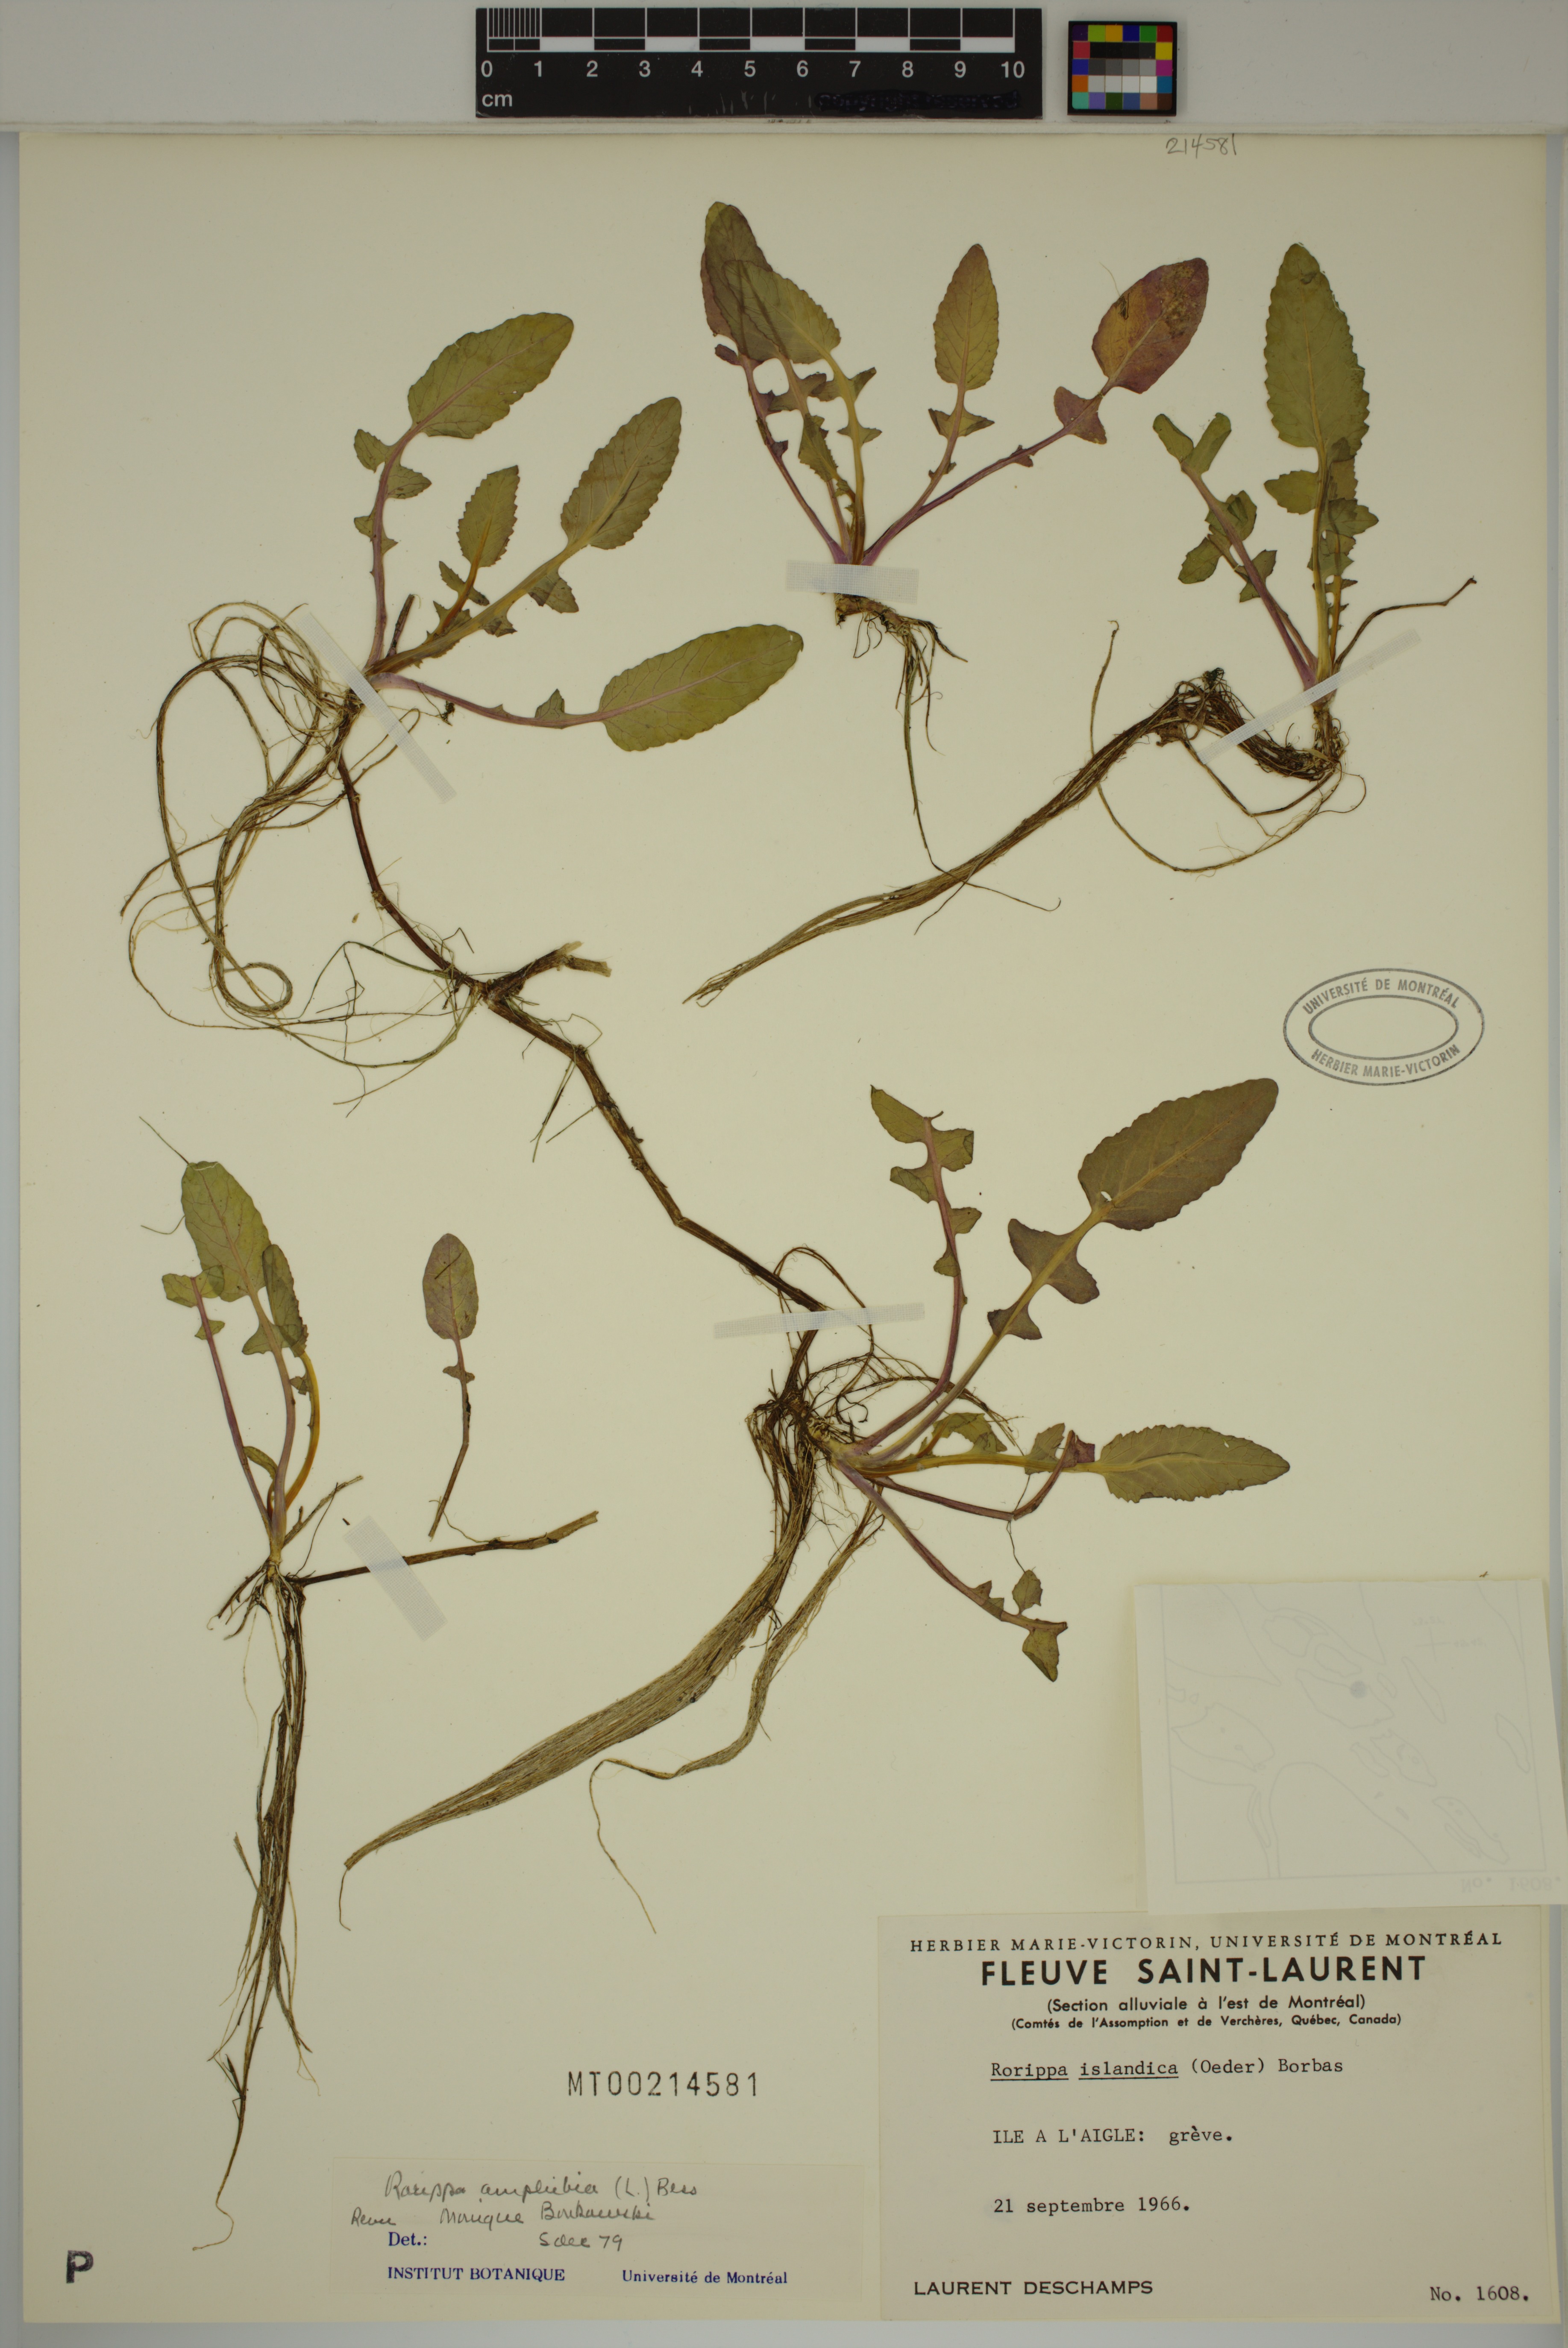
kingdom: Plantae
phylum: Tracheophyta
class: Magnoliopsida
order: Brassicales
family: Brassicaceae
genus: Rorippa
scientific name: Rorippa amphibia
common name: Great yellow-cress
